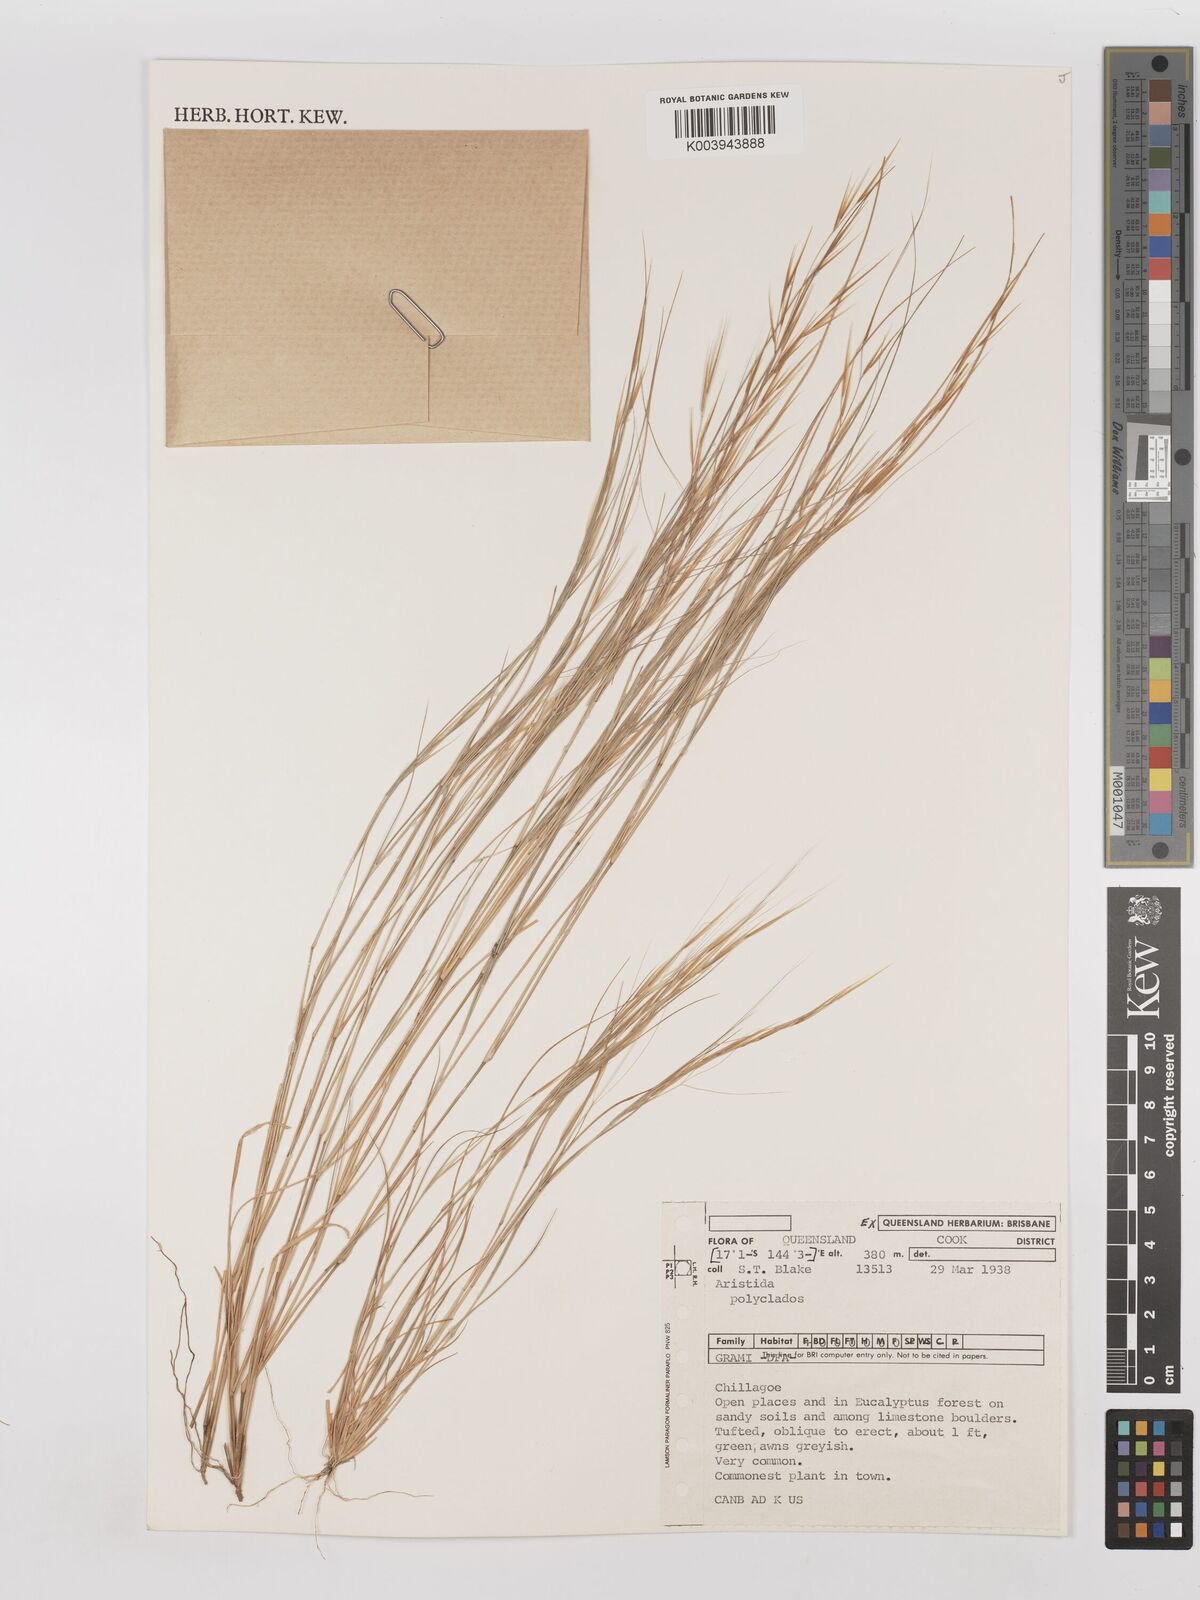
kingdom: Plantae
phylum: Tracheophyta
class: Liliopsida
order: Poales
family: Poaceae
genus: Aristida
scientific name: Aristida polyclados
